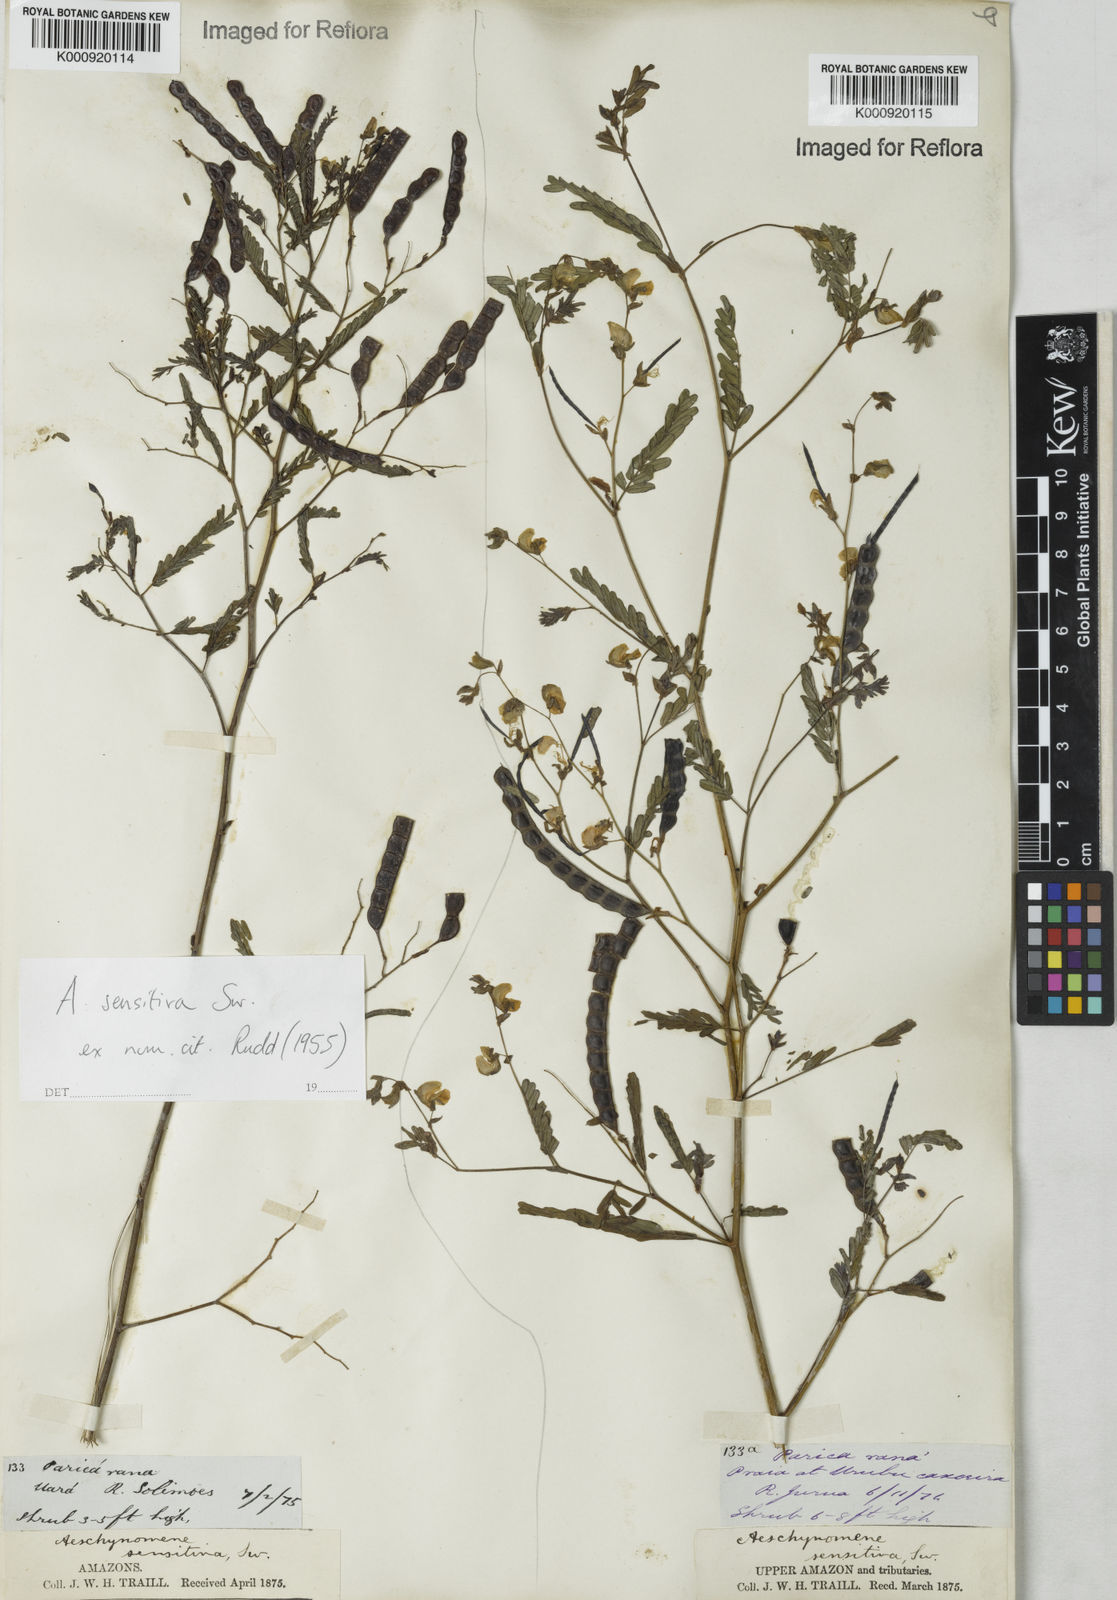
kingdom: Plantae
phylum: Tracheophyta
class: Magnoliopsida
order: Fabales
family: Fabaceae
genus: Aeschynomene
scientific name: Aeschynomene sensitiva
